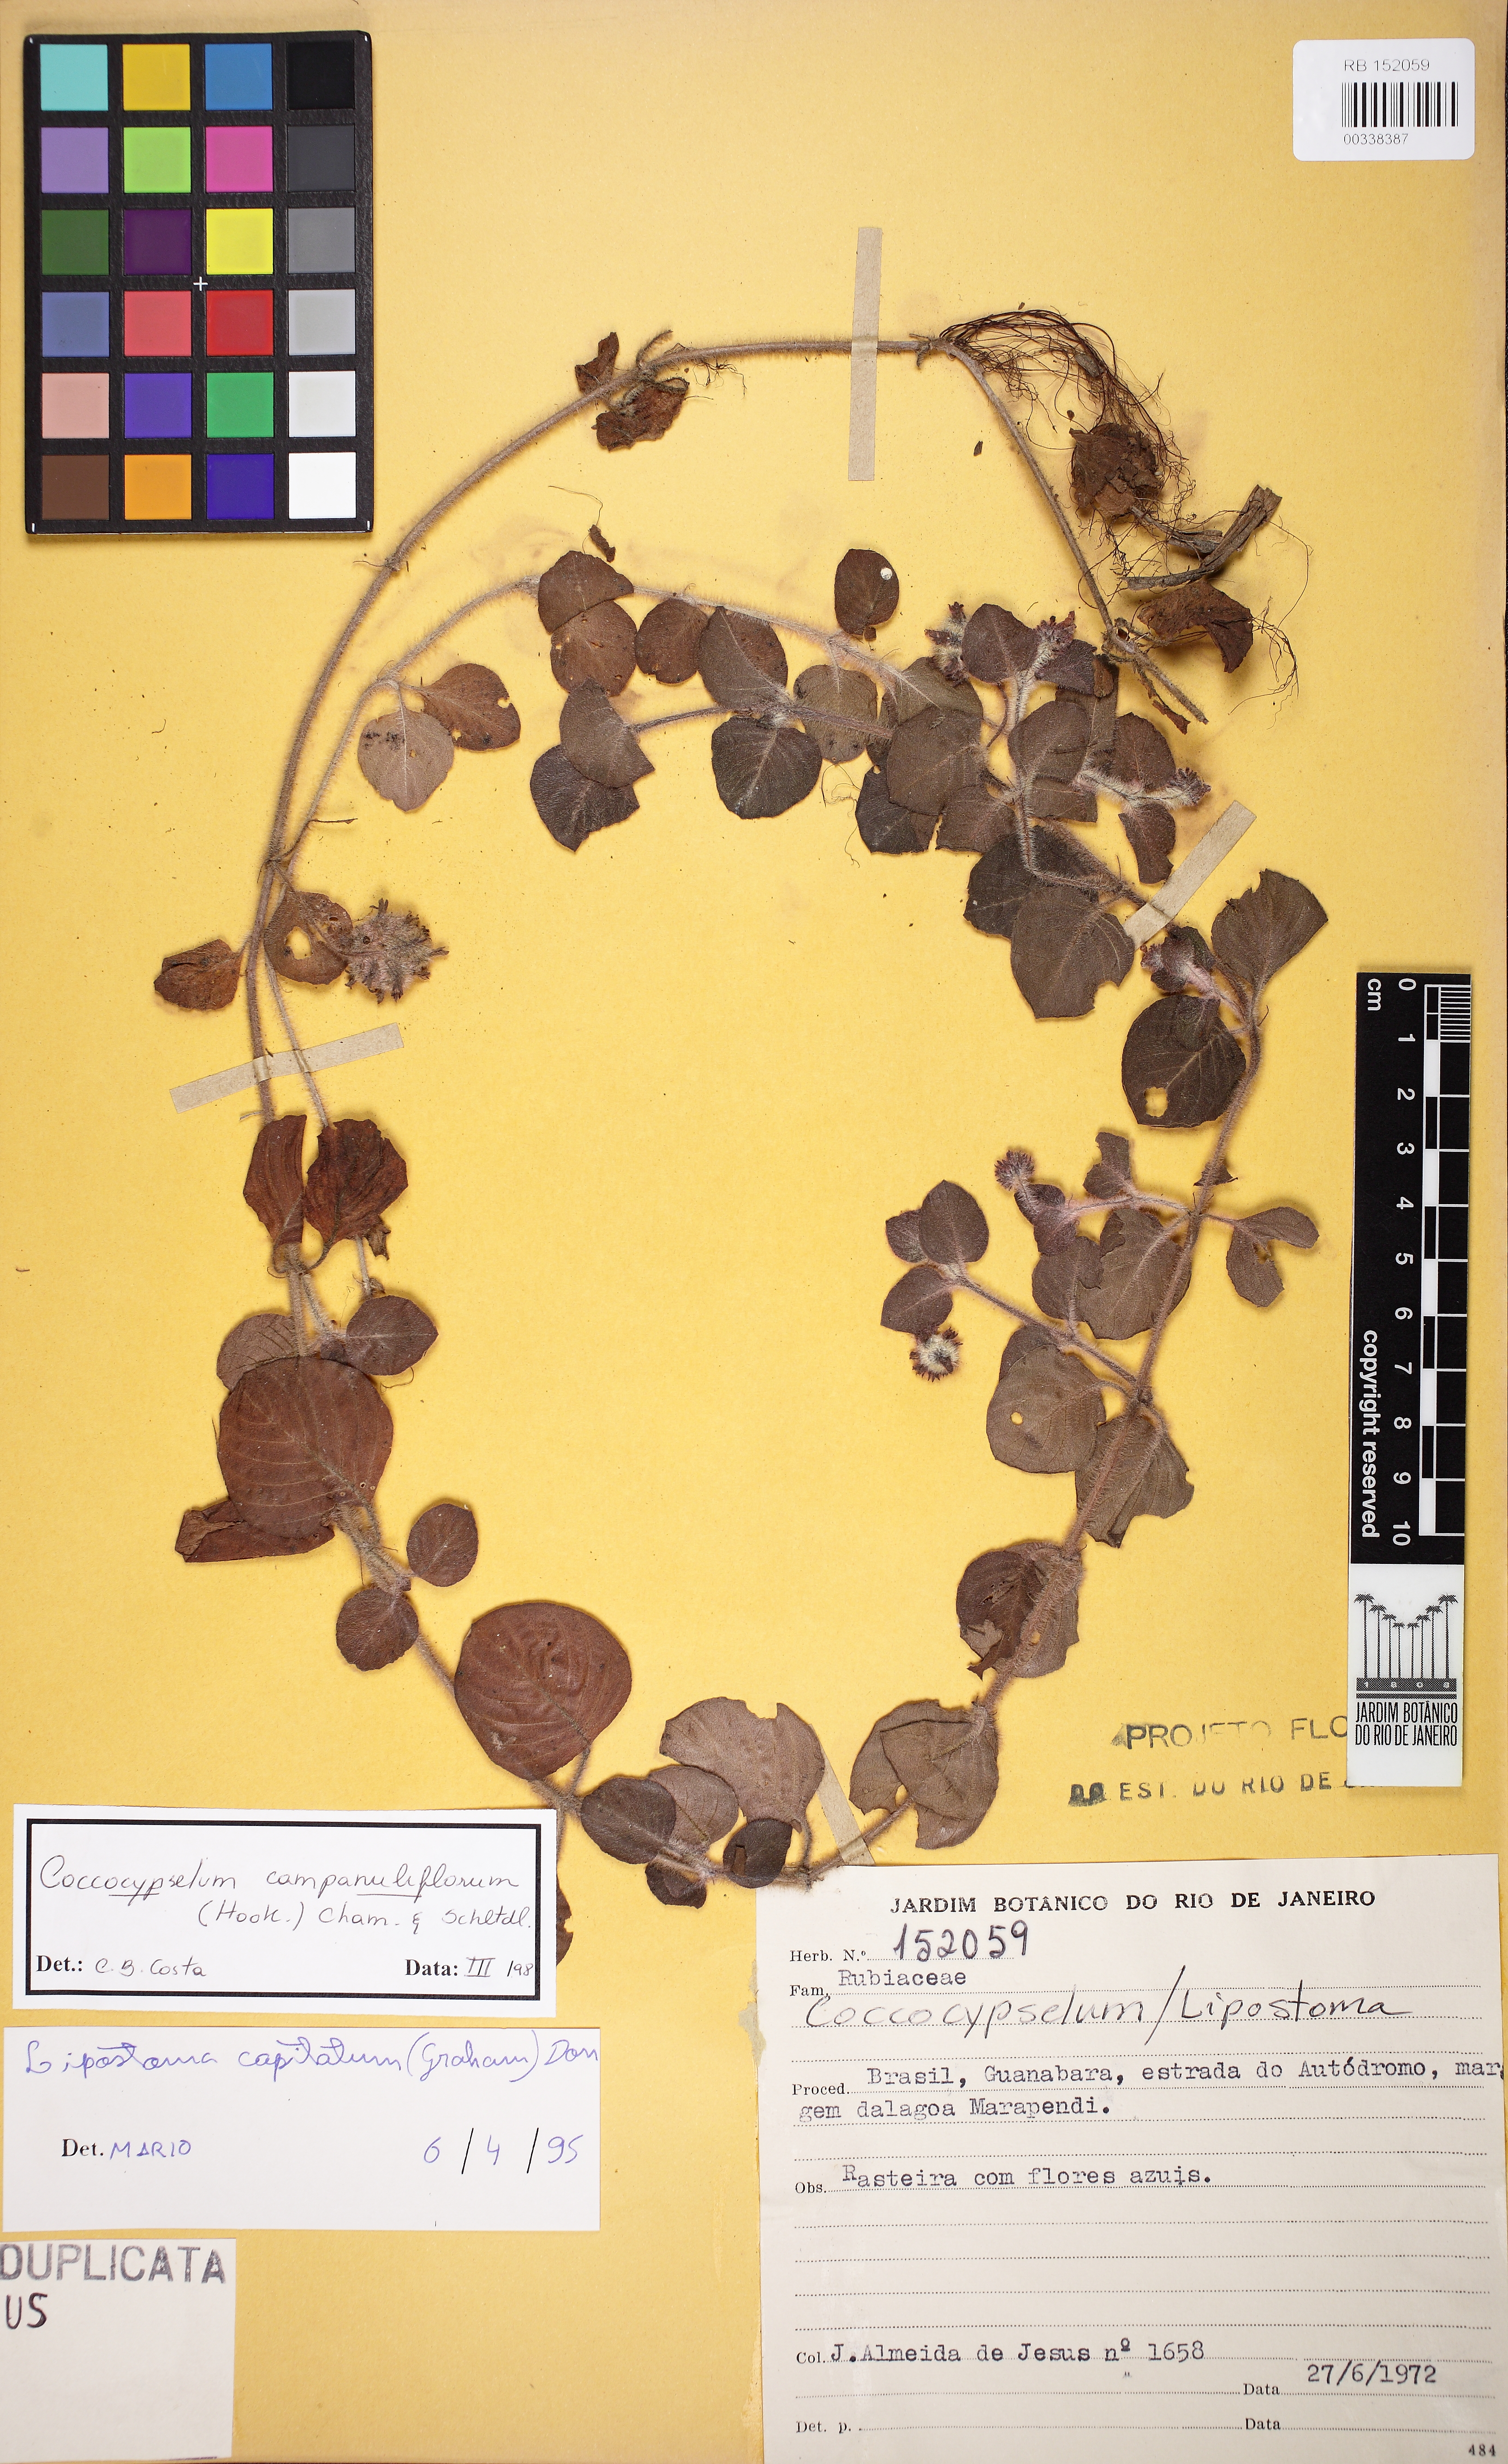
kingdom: Plantae
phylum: Tracheophyta
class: Magnoliopsida
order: Gentianales
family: Rubiaceae
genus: Coccocypselum
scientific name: Coccocypselum capitatum
